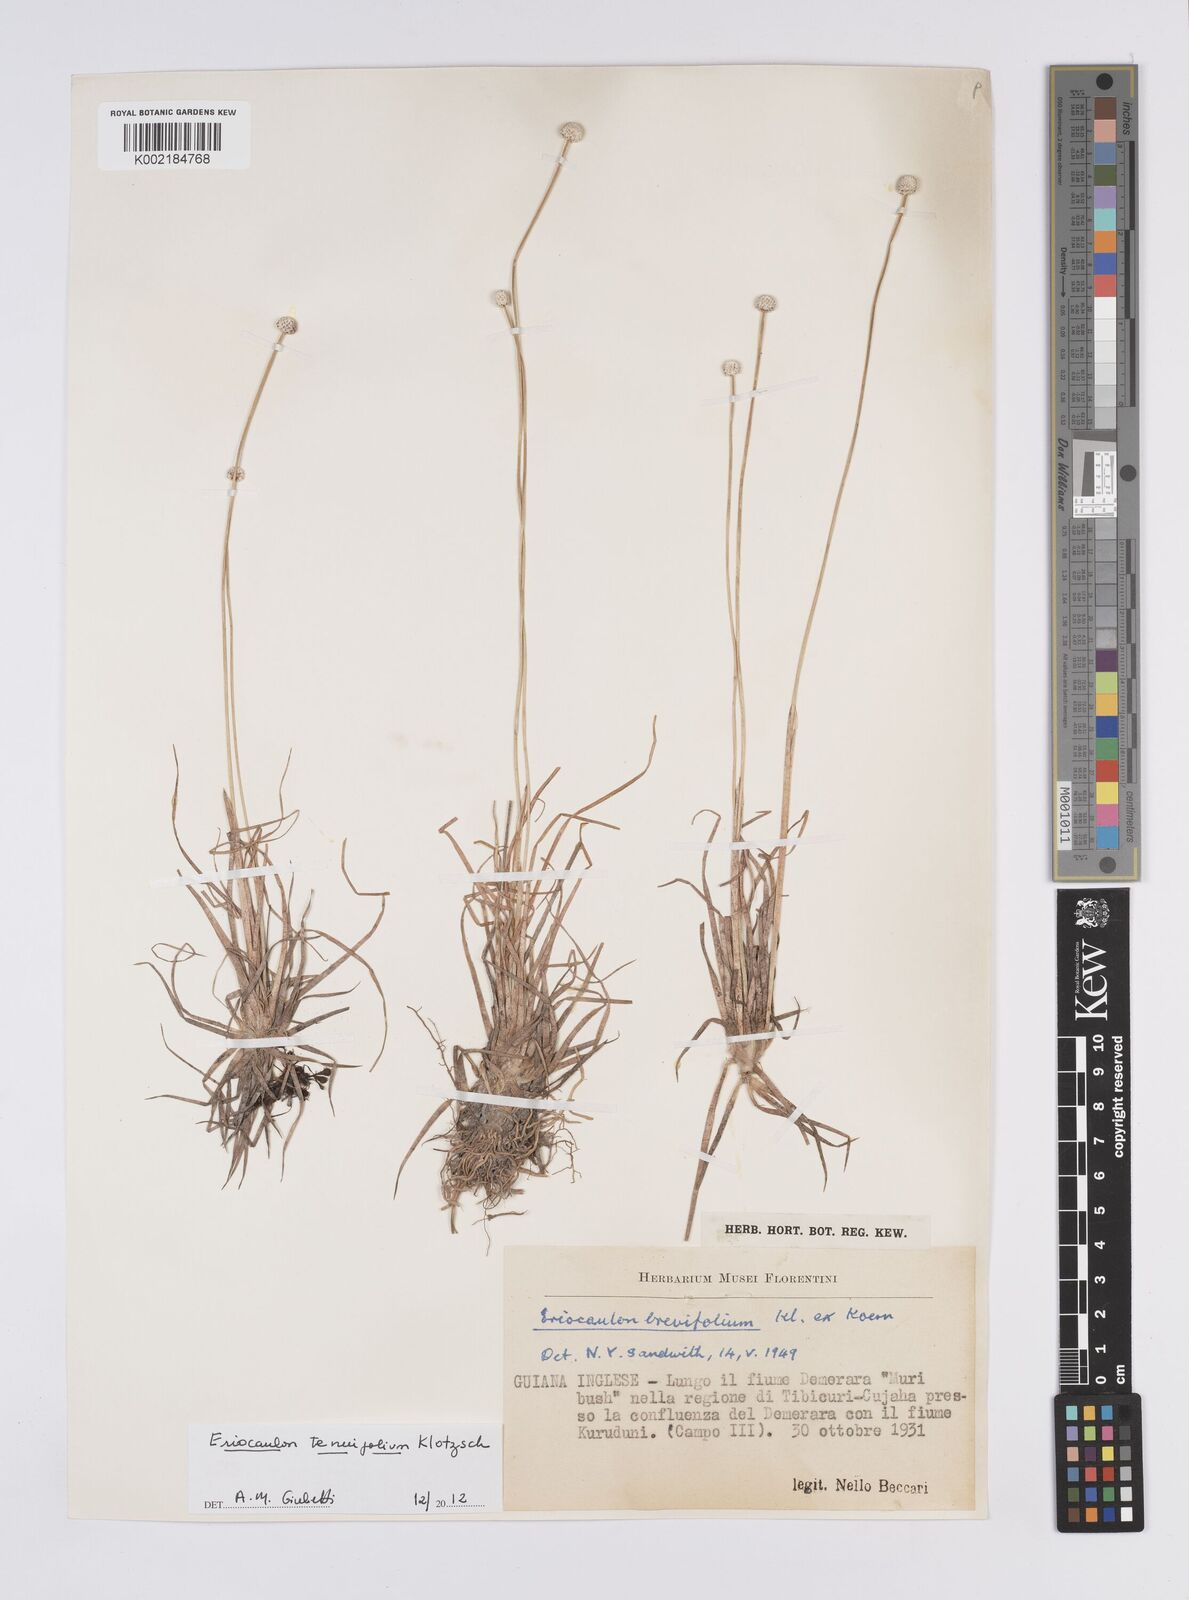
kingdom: Plantae
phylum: Tracheophyta
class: Liliopsida
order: Poales
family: Eriocaulaceae
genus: Eriocaulon
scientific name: Eriocaulon tenuifolium
